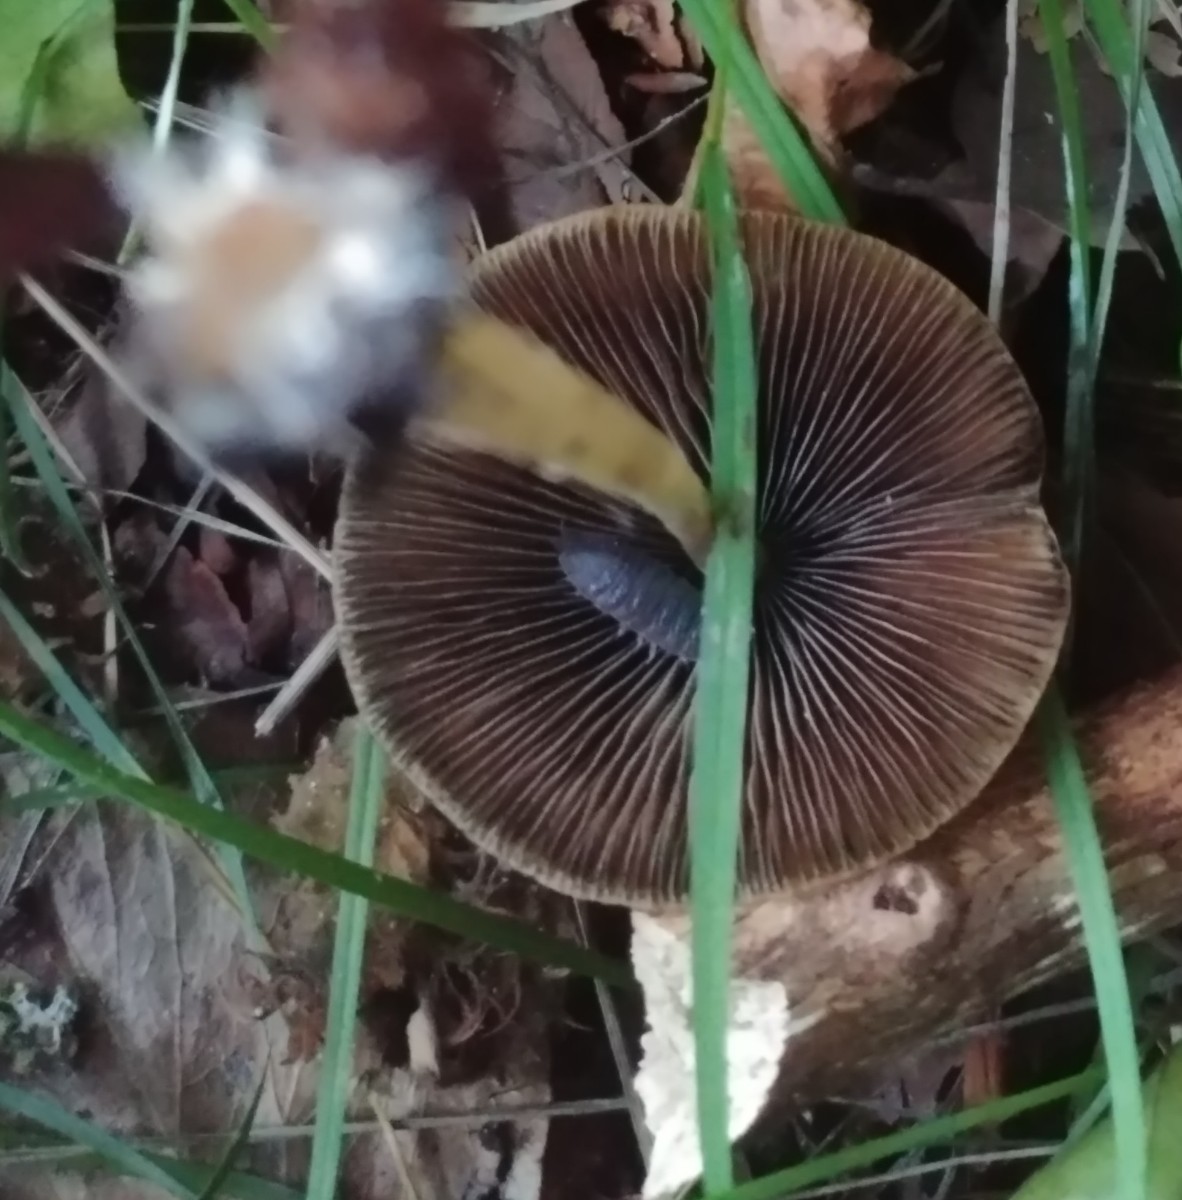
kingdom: Fungi
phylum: Basidiomycota
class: Agaricomycetes
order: Agaricales
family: Psathyrellaceae
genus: Parasola
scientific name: Parasola conopilea
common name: kegle-hjulhat
